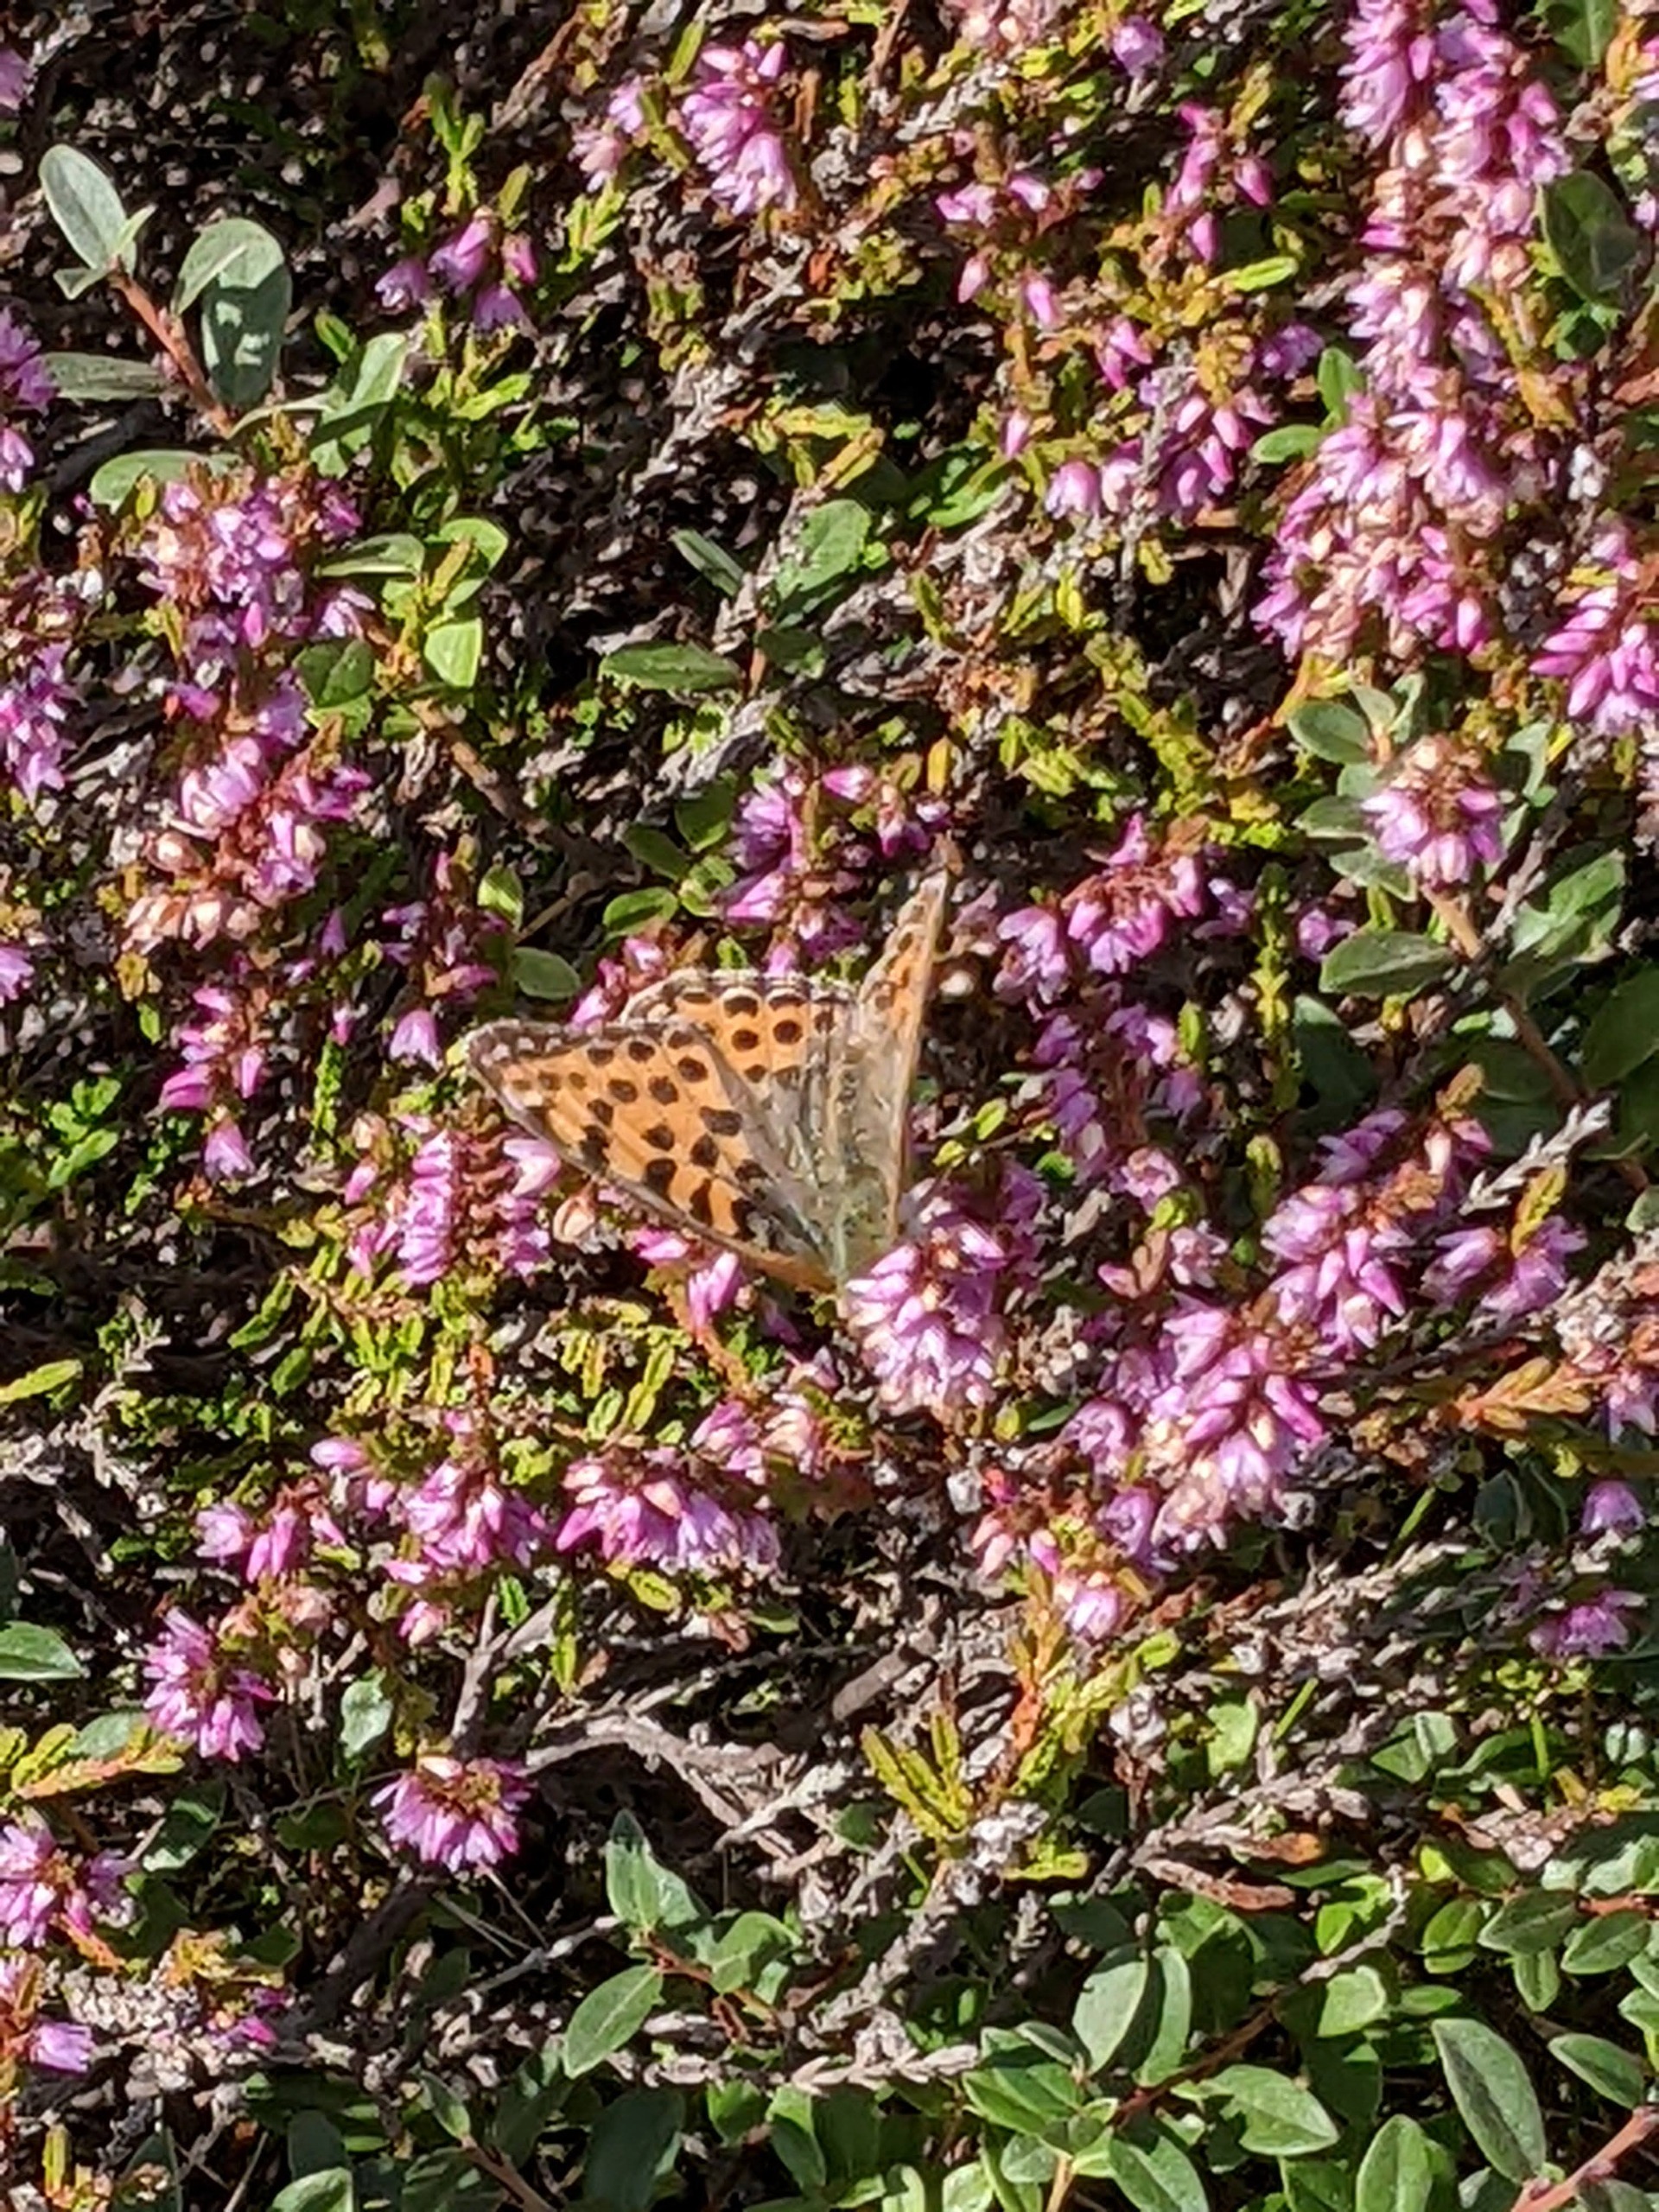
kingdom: Animalia
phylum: Arthropoda
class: Insecta
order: Lepidoptera
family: Nymphalidae
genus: Issoria
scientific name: Issoria lathonia
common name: Storplettet perlemorsommerfugl
